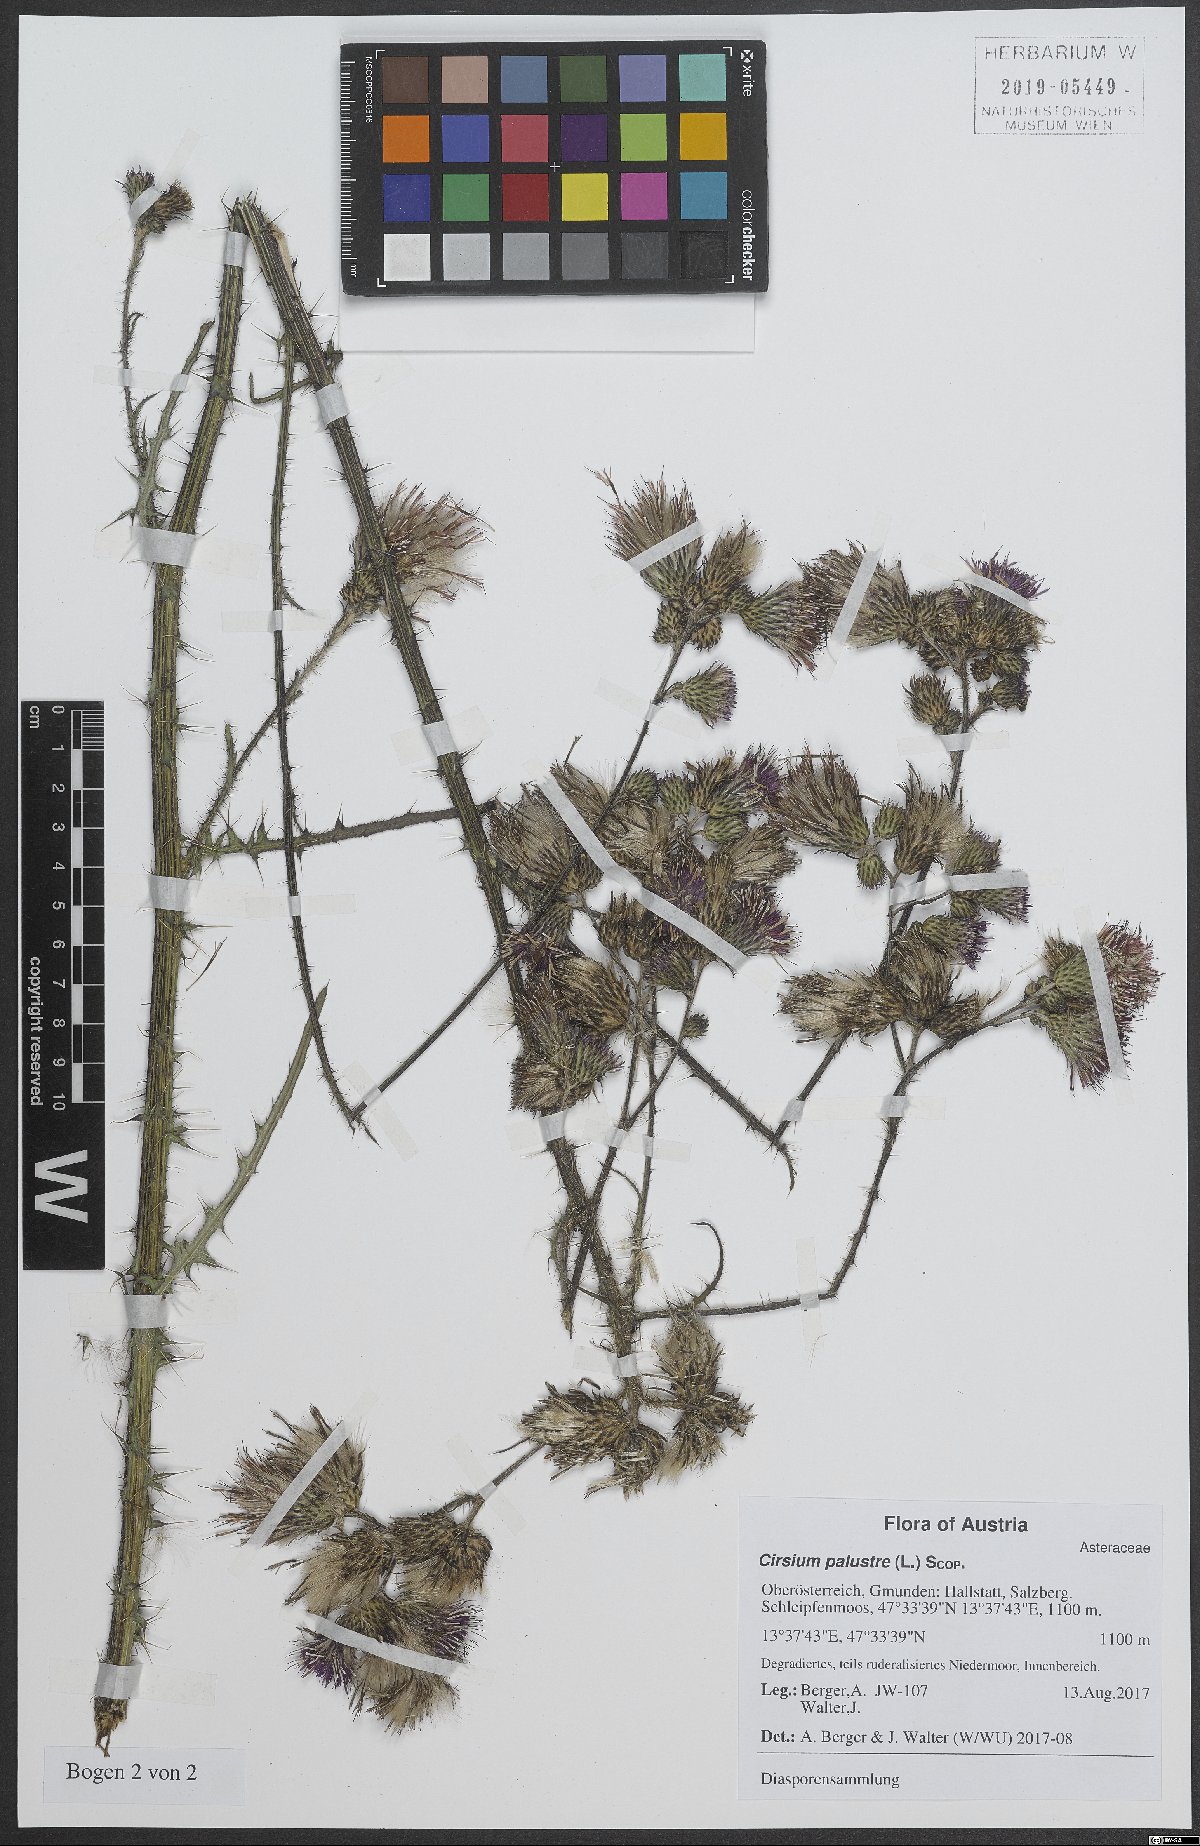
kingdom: Plantae
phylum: Tracheophyta
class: Magnoliopsida
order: Asterales
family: Asteraceae
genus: Cirsium
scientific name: Cirsium palustre
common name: Marsh thistle
